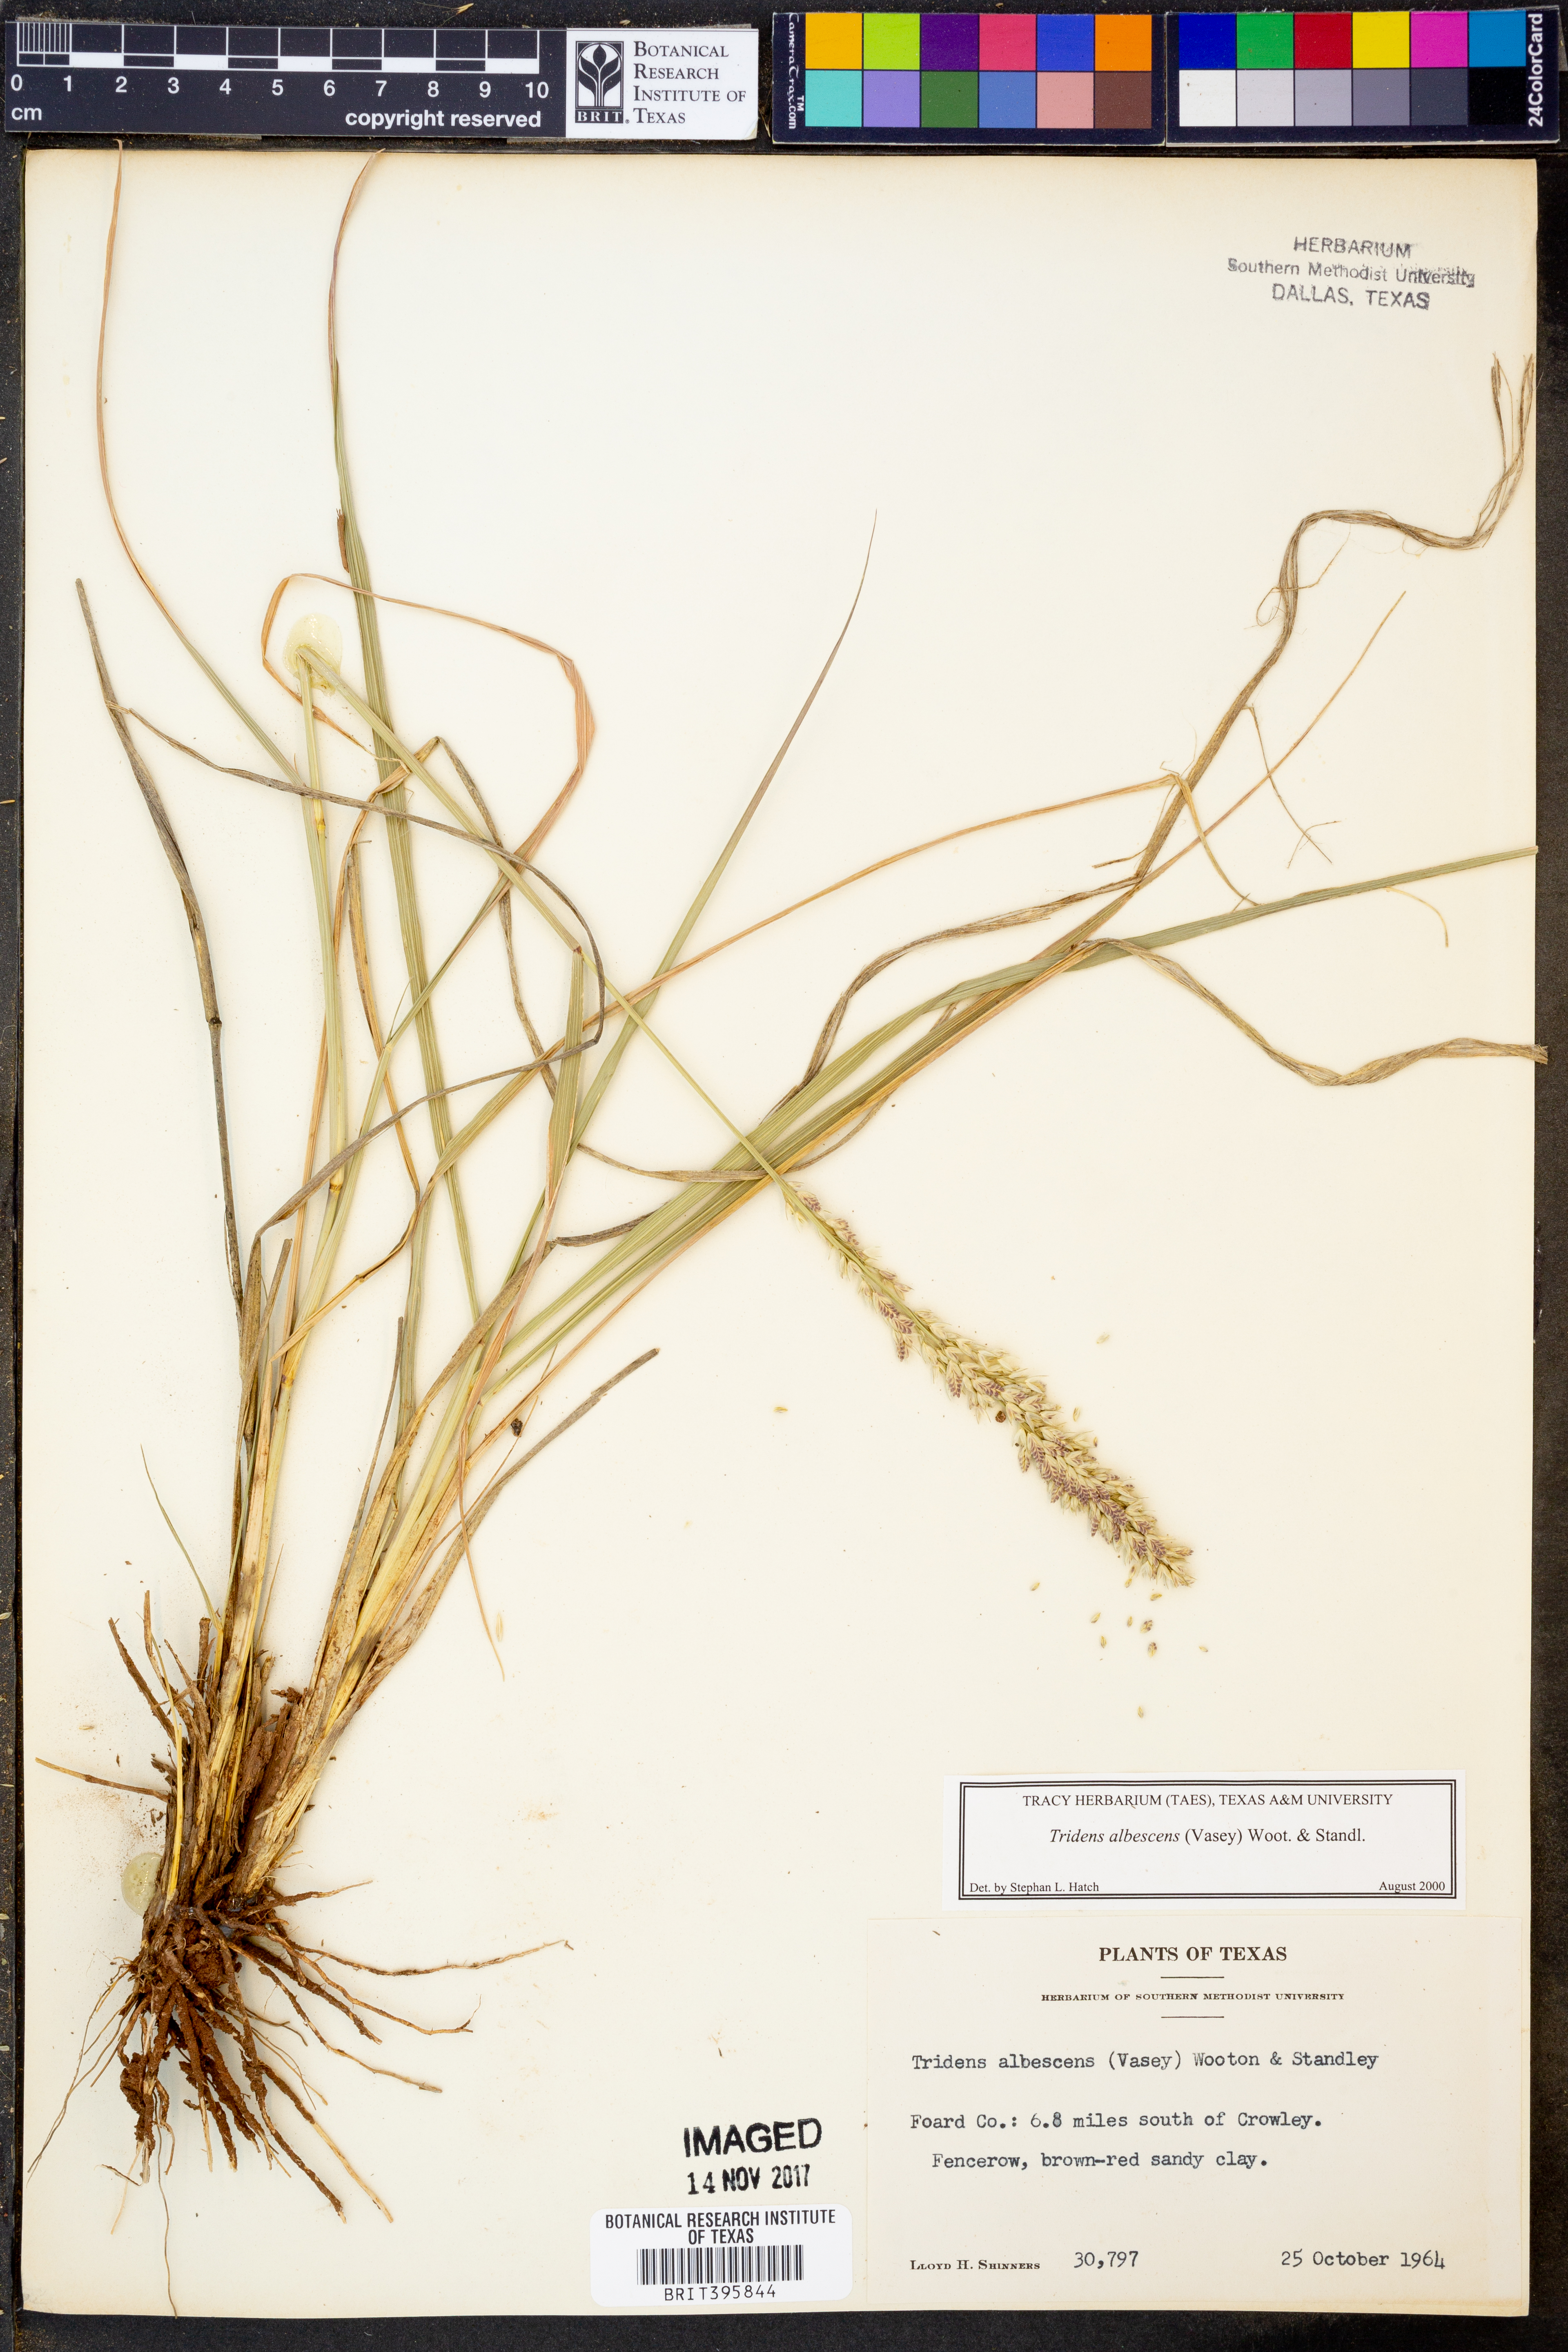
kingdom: Plantae
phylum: Tracheophyta
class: Liliopsida
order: Poales
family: Poaceae
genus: Tridens
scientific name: Tridens albescens
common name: White tridens
